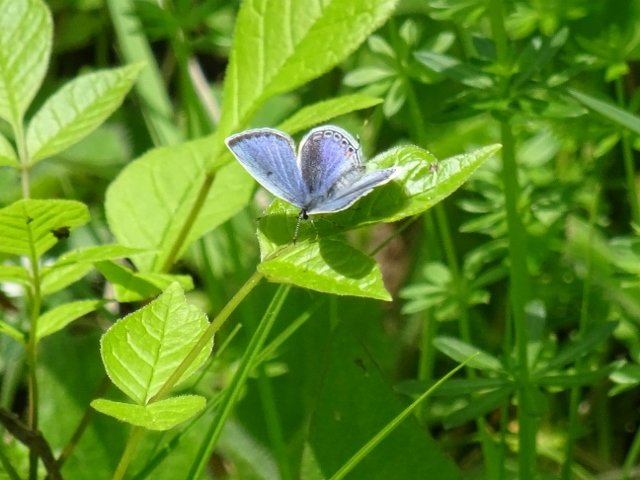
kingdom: Animalia
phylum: Arthropoda
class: Insecta
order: Lepidoptera
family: Lycaenidae
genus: Elkalyce
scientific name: Elkalyce comyntas
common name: Eastern Tailed-Blue
